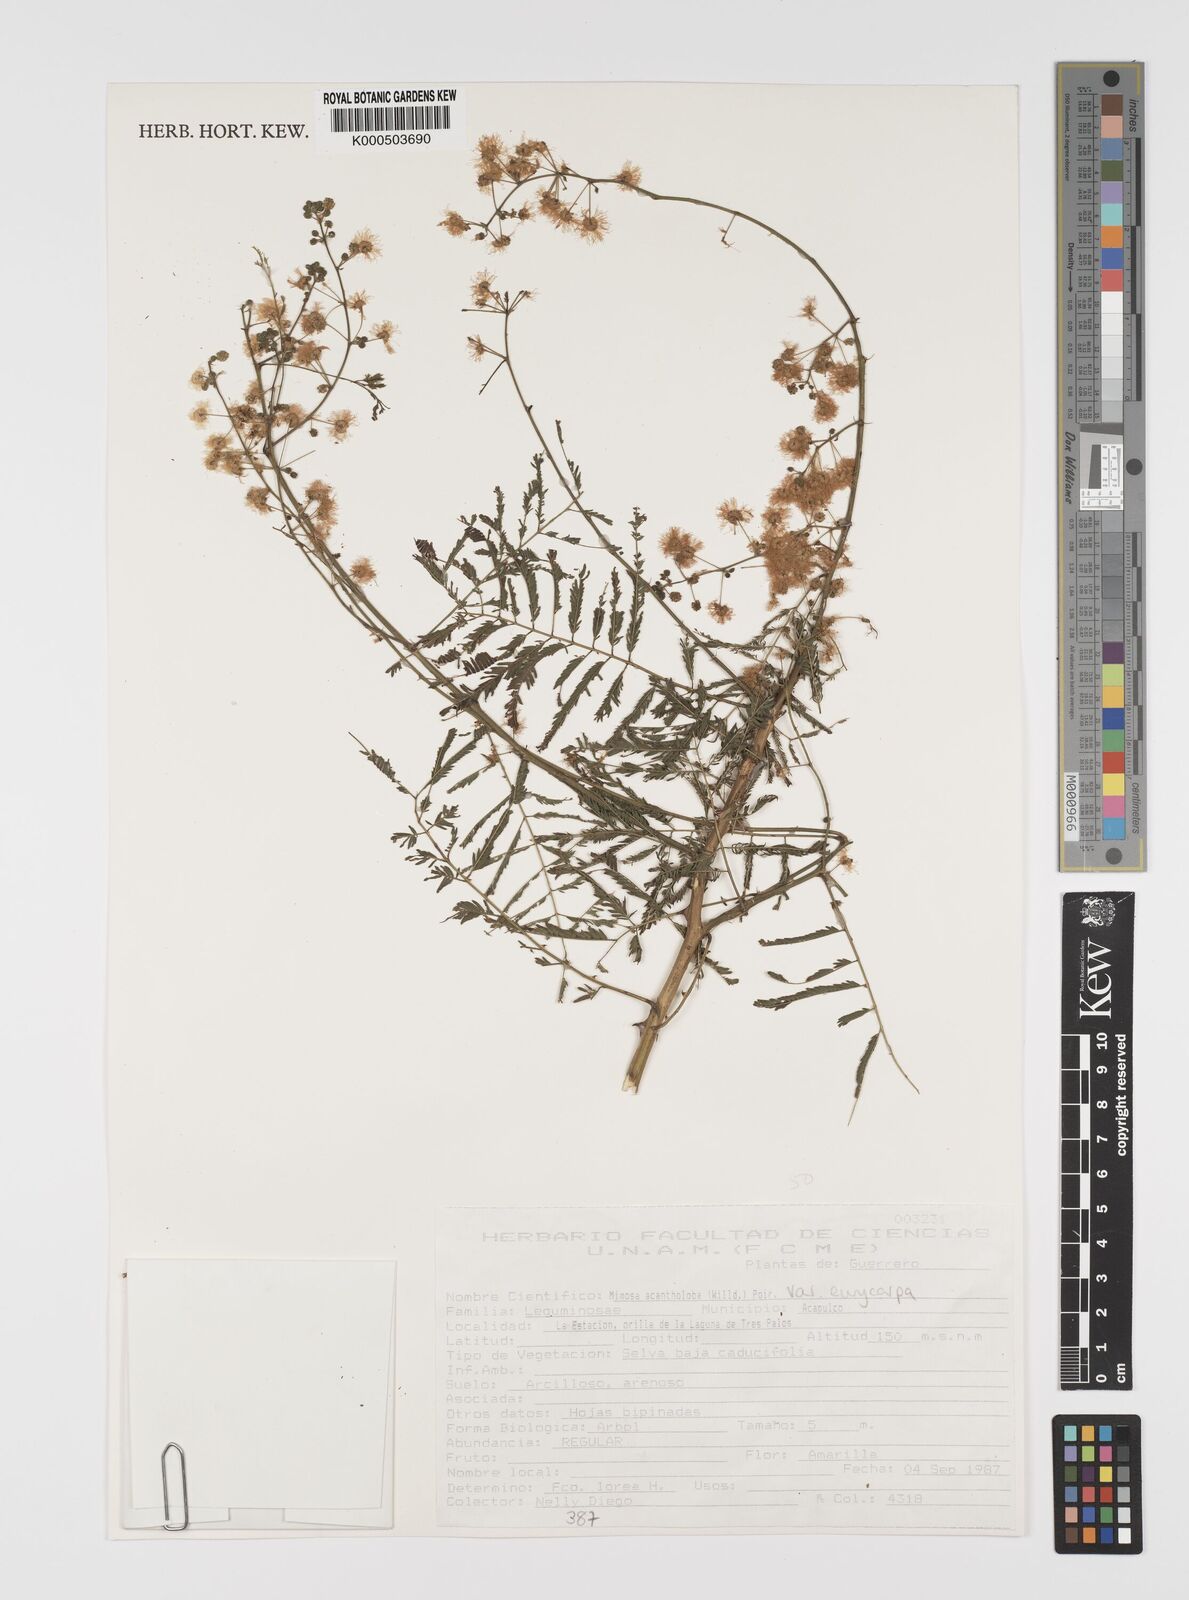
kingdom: Plantae
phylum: Tracheophyta
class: Magnoliopsida
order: Fabales
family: Fabaceae
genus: Mimosa
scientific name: Mimosa acantholoba
